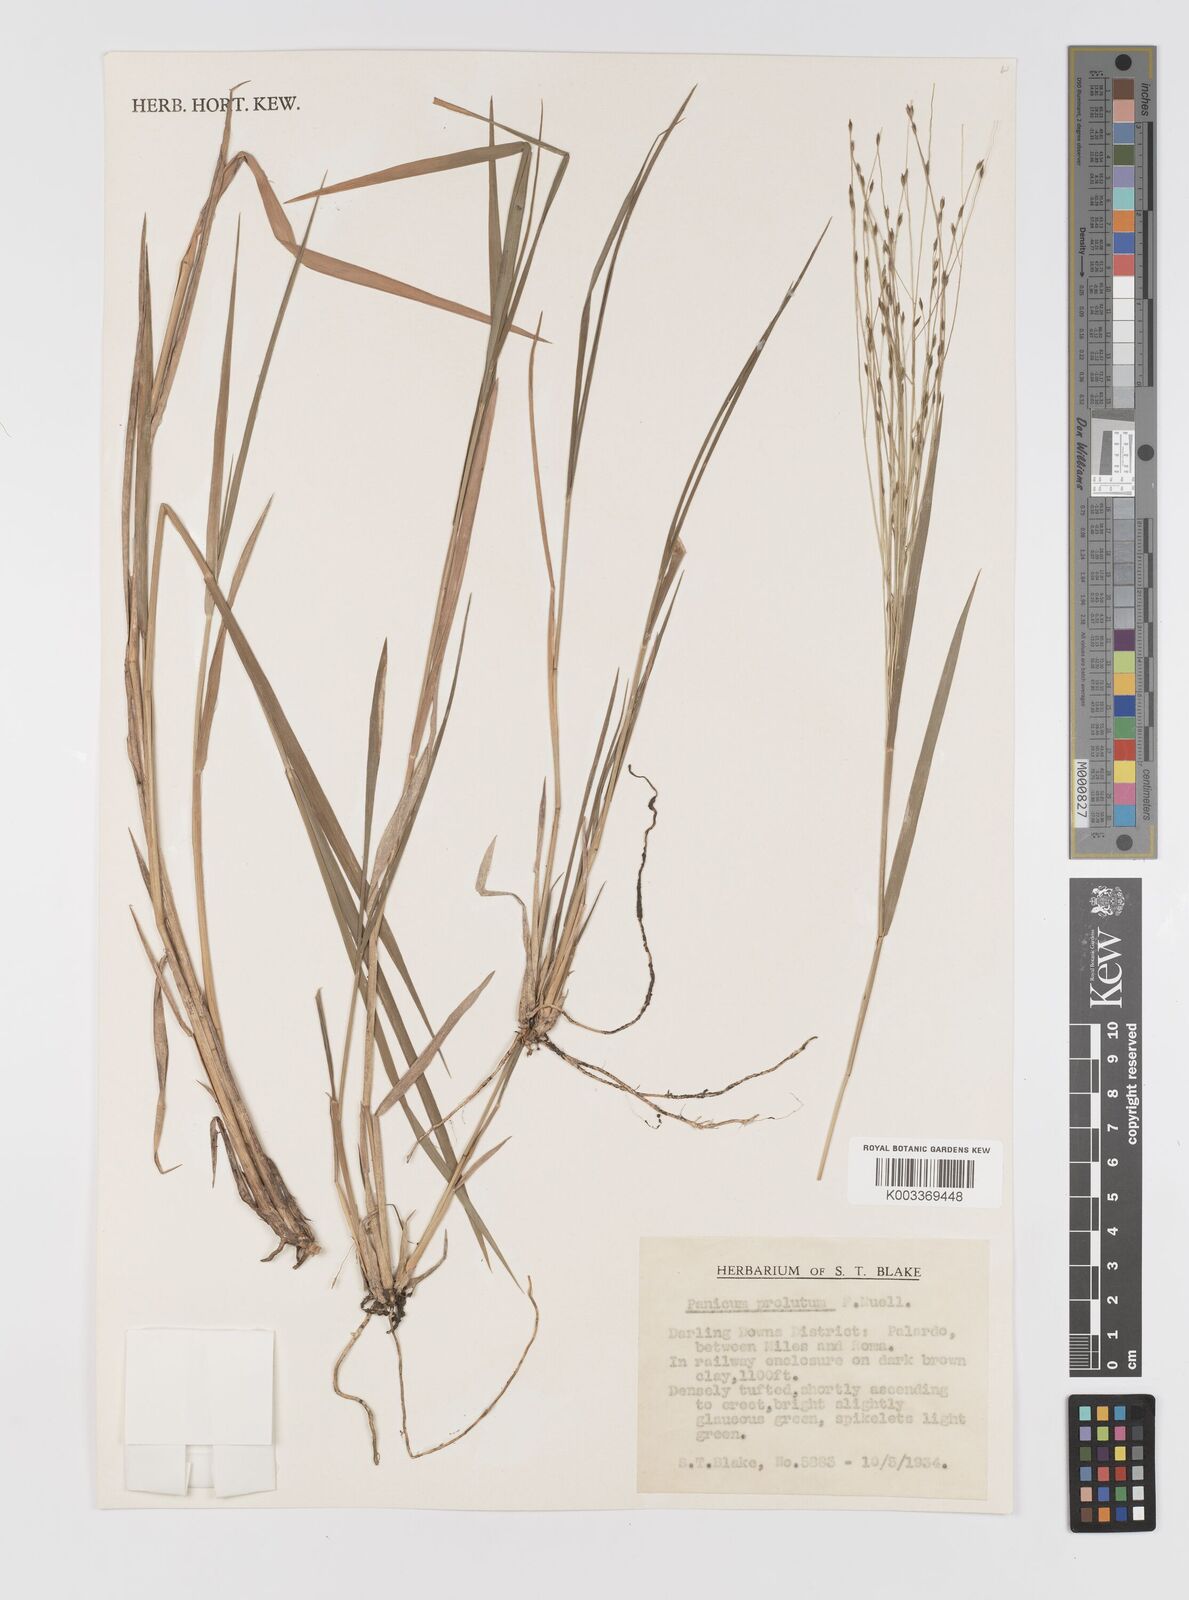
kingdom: Plantae
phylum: Tracheophyta
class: Liliopsida
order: Poales
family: Poaceae
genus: Walwhalleya
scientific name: Walwhalleya proluta
